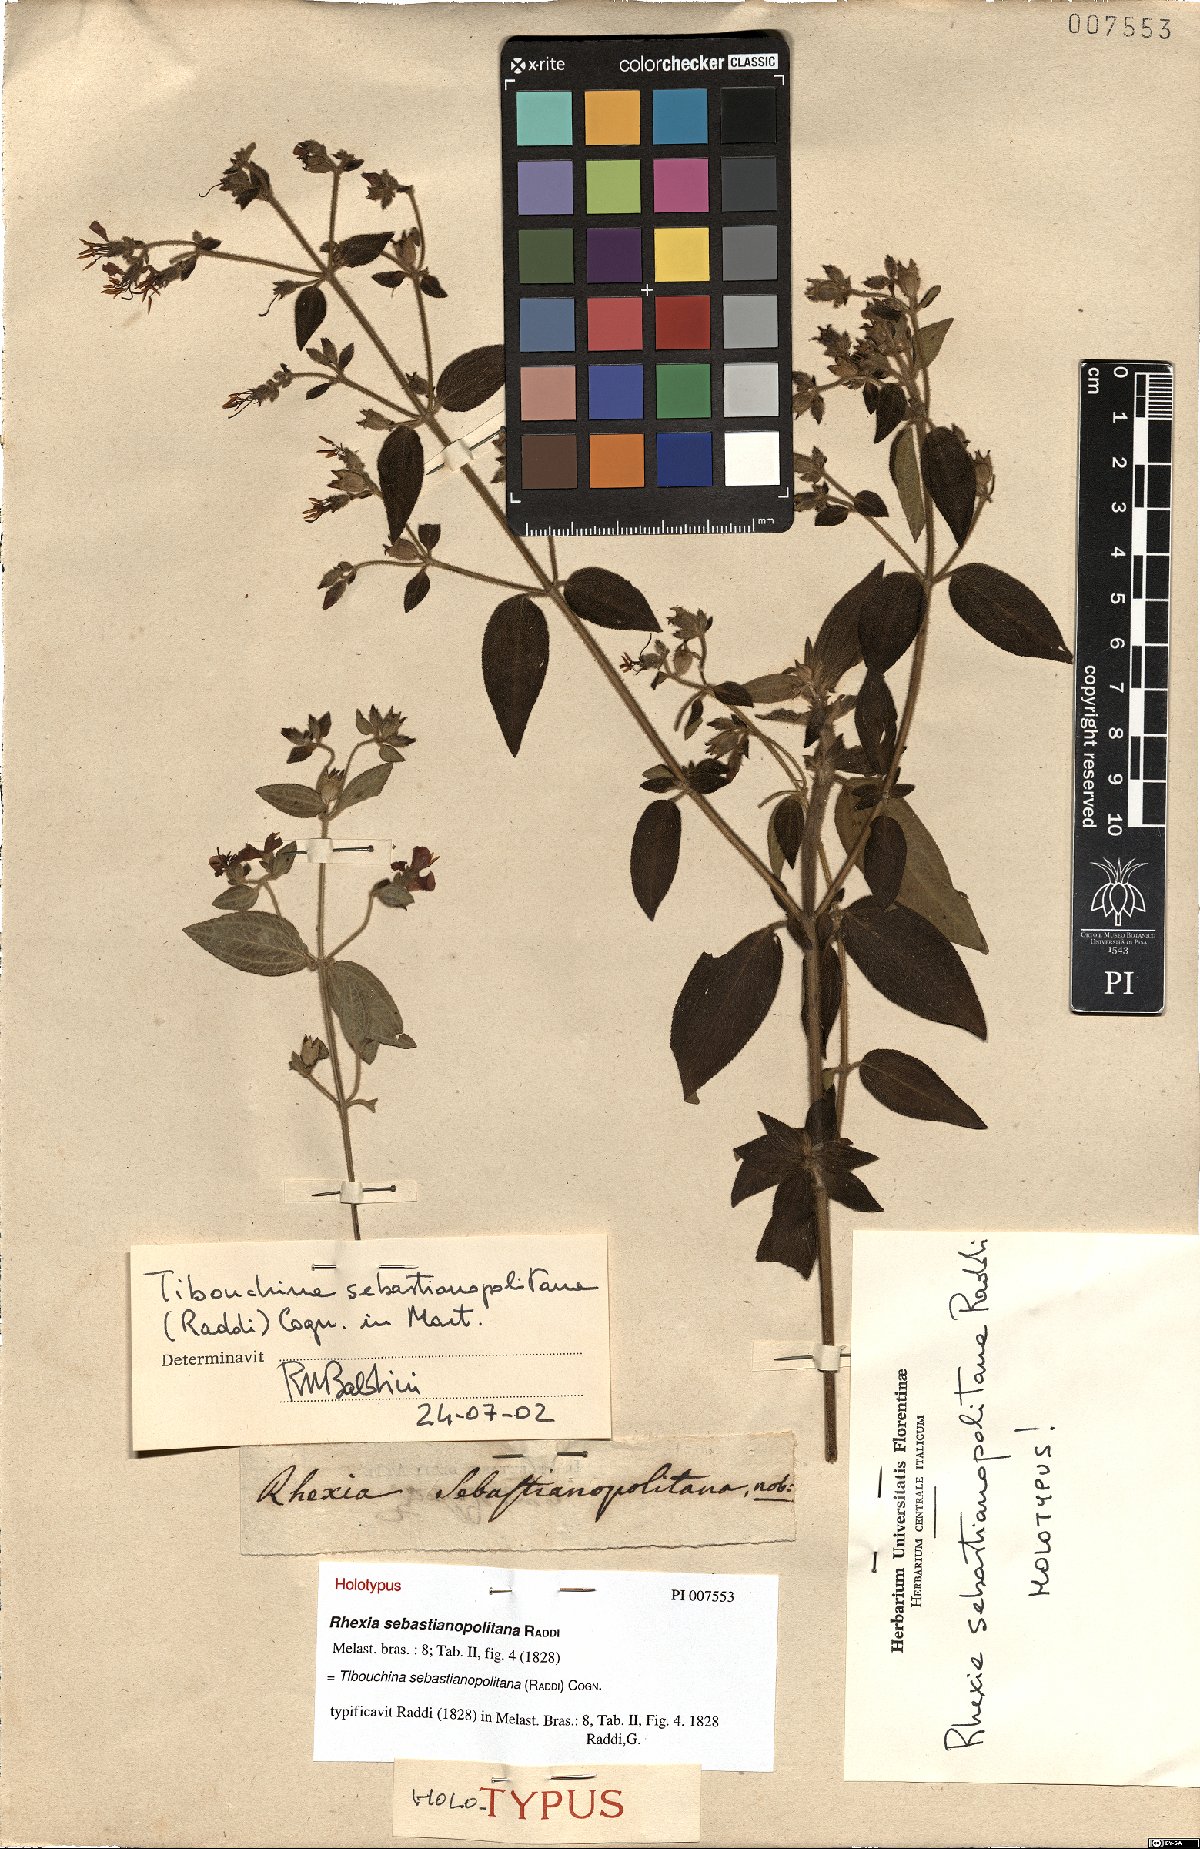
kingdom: Plantae
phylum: Tracheophyta
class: Magnoliopsida
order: Myrtales
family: Melastomataceae
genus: Chaetogastra
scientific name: Chaetogastra sebastianopolitana
